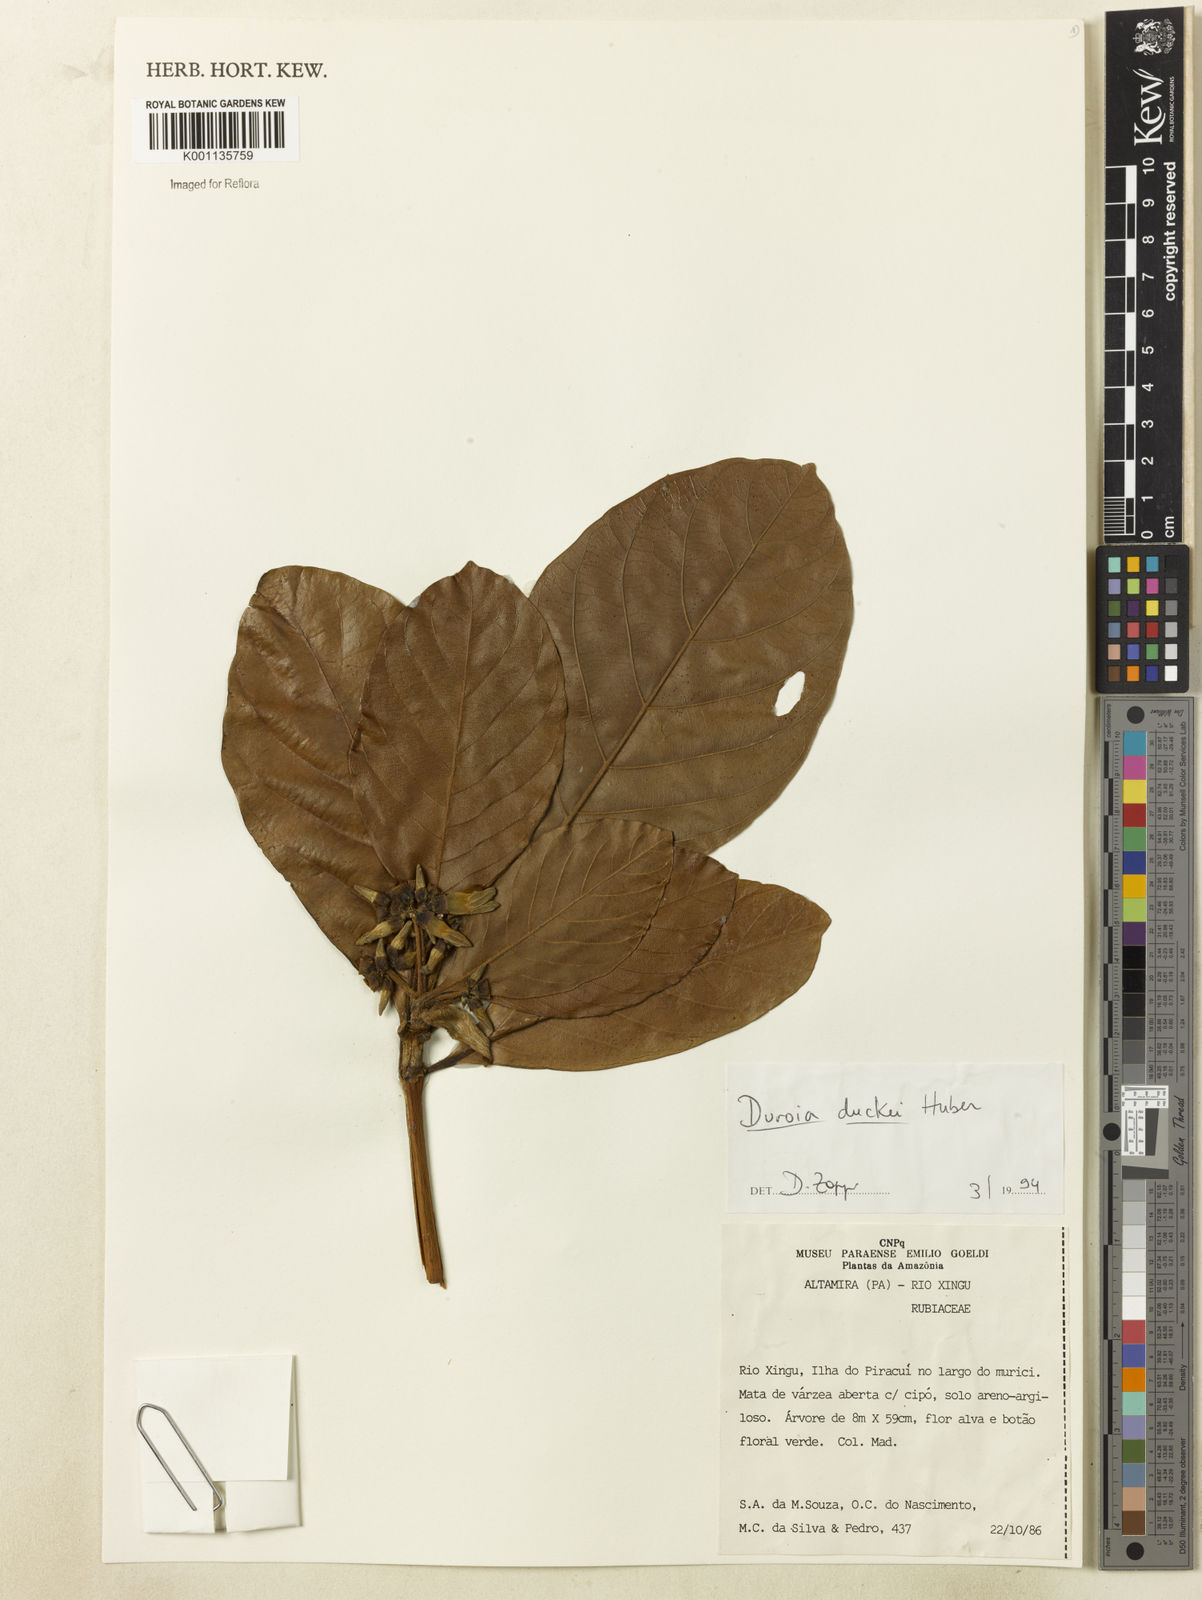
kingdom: Plantae
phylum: Tracheophyta
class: Magnoliopsida
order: Gentianales
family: Rubiaceae
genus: Duroia
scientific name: Duroia duckei
